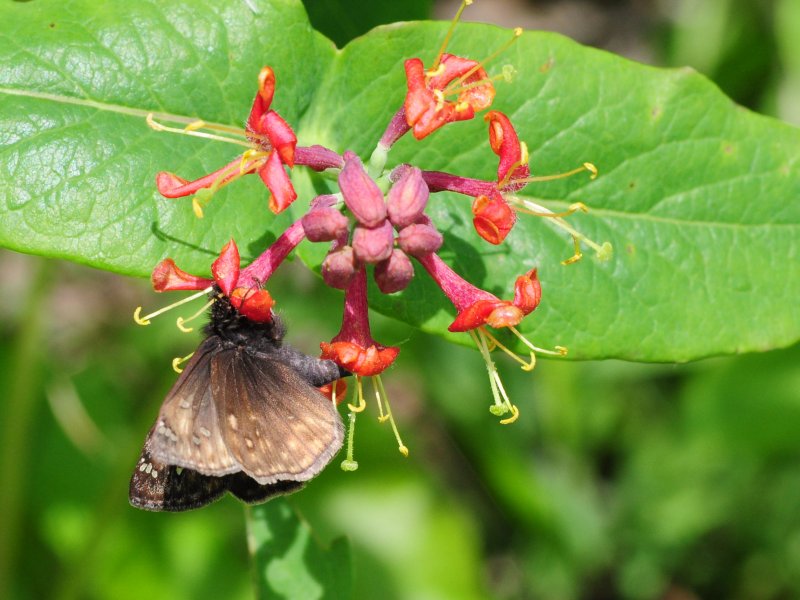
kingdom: Animalia
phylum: Arthropoda
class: Insecta
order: Lepidoptera
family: Hesperiidae
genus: Gesta
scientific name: Gesta
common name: Juvenal's Duskywing
